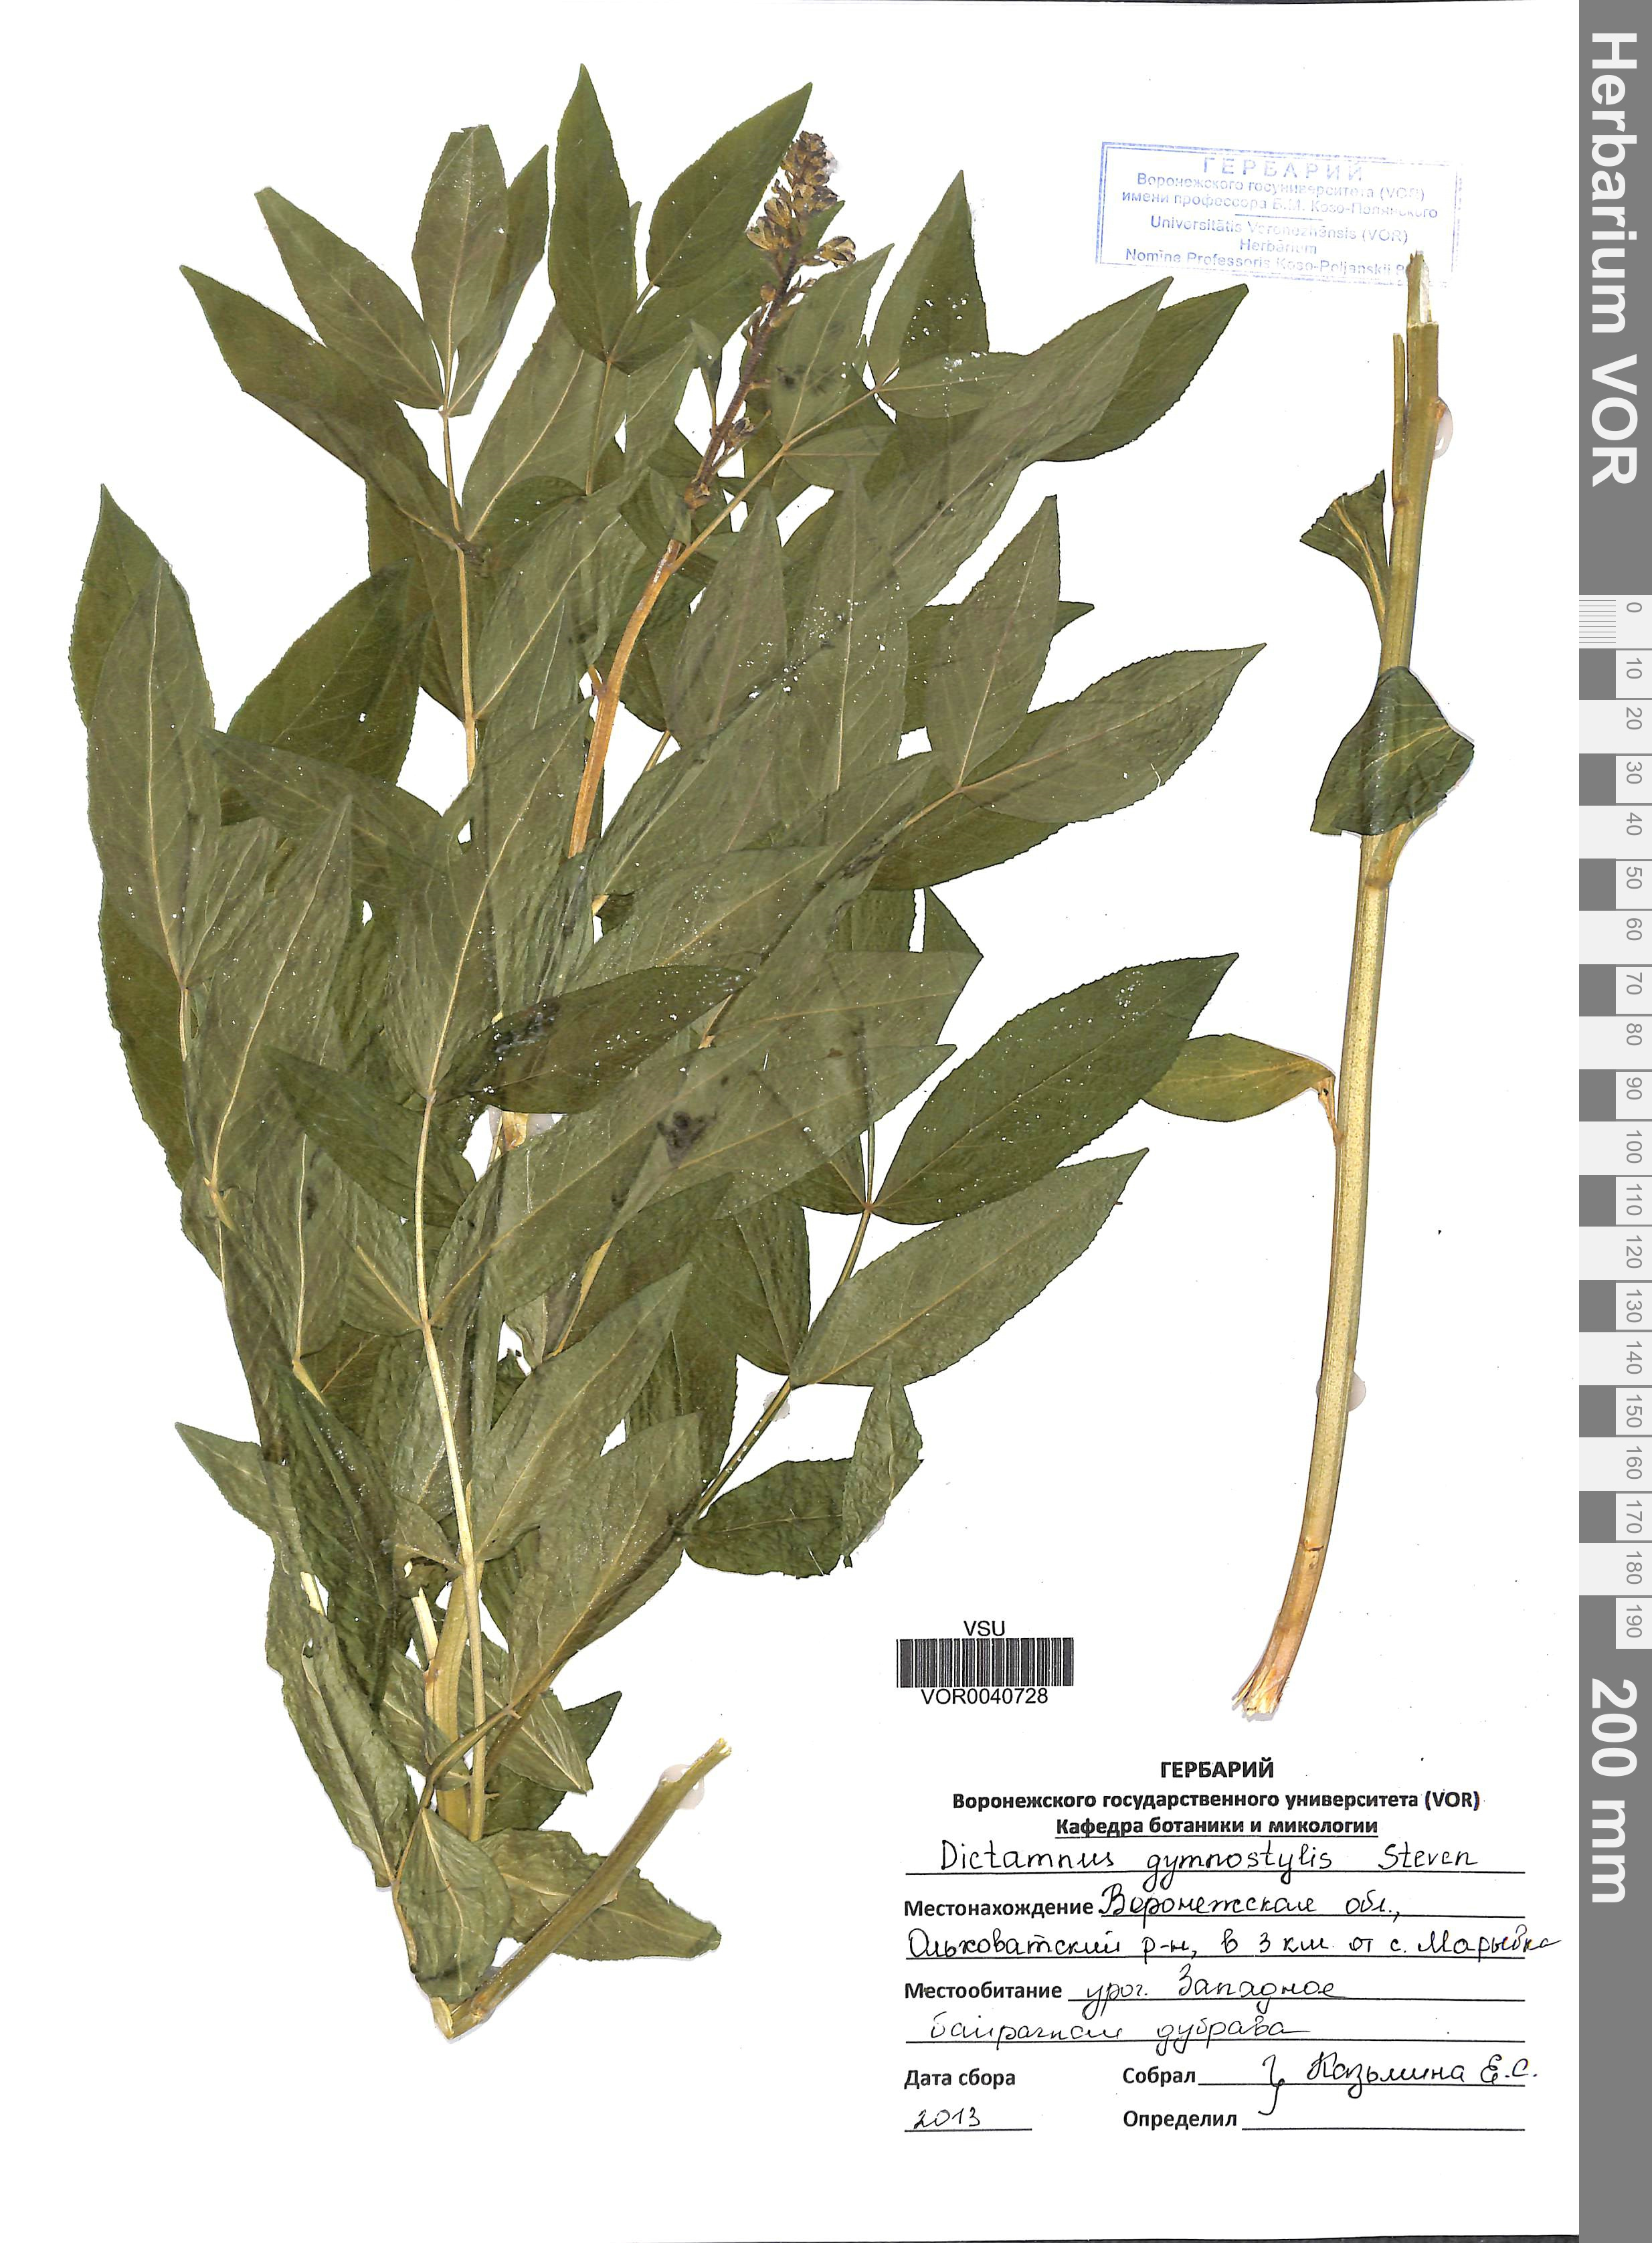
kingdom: Plantae
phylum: Tracheophyta
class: Magnoliopsida
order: Sapindales
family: Rutaceae
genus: Dictamnus
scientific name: Dictamnus albus
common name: Gasplant
